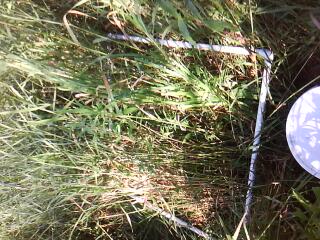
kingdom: Plantae
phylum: Tracheophyta
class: Magnoliopsida
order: Asterales
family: Asteraceae
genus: Solidago
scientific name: Solidago canadensis
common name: Canada goldenrod
